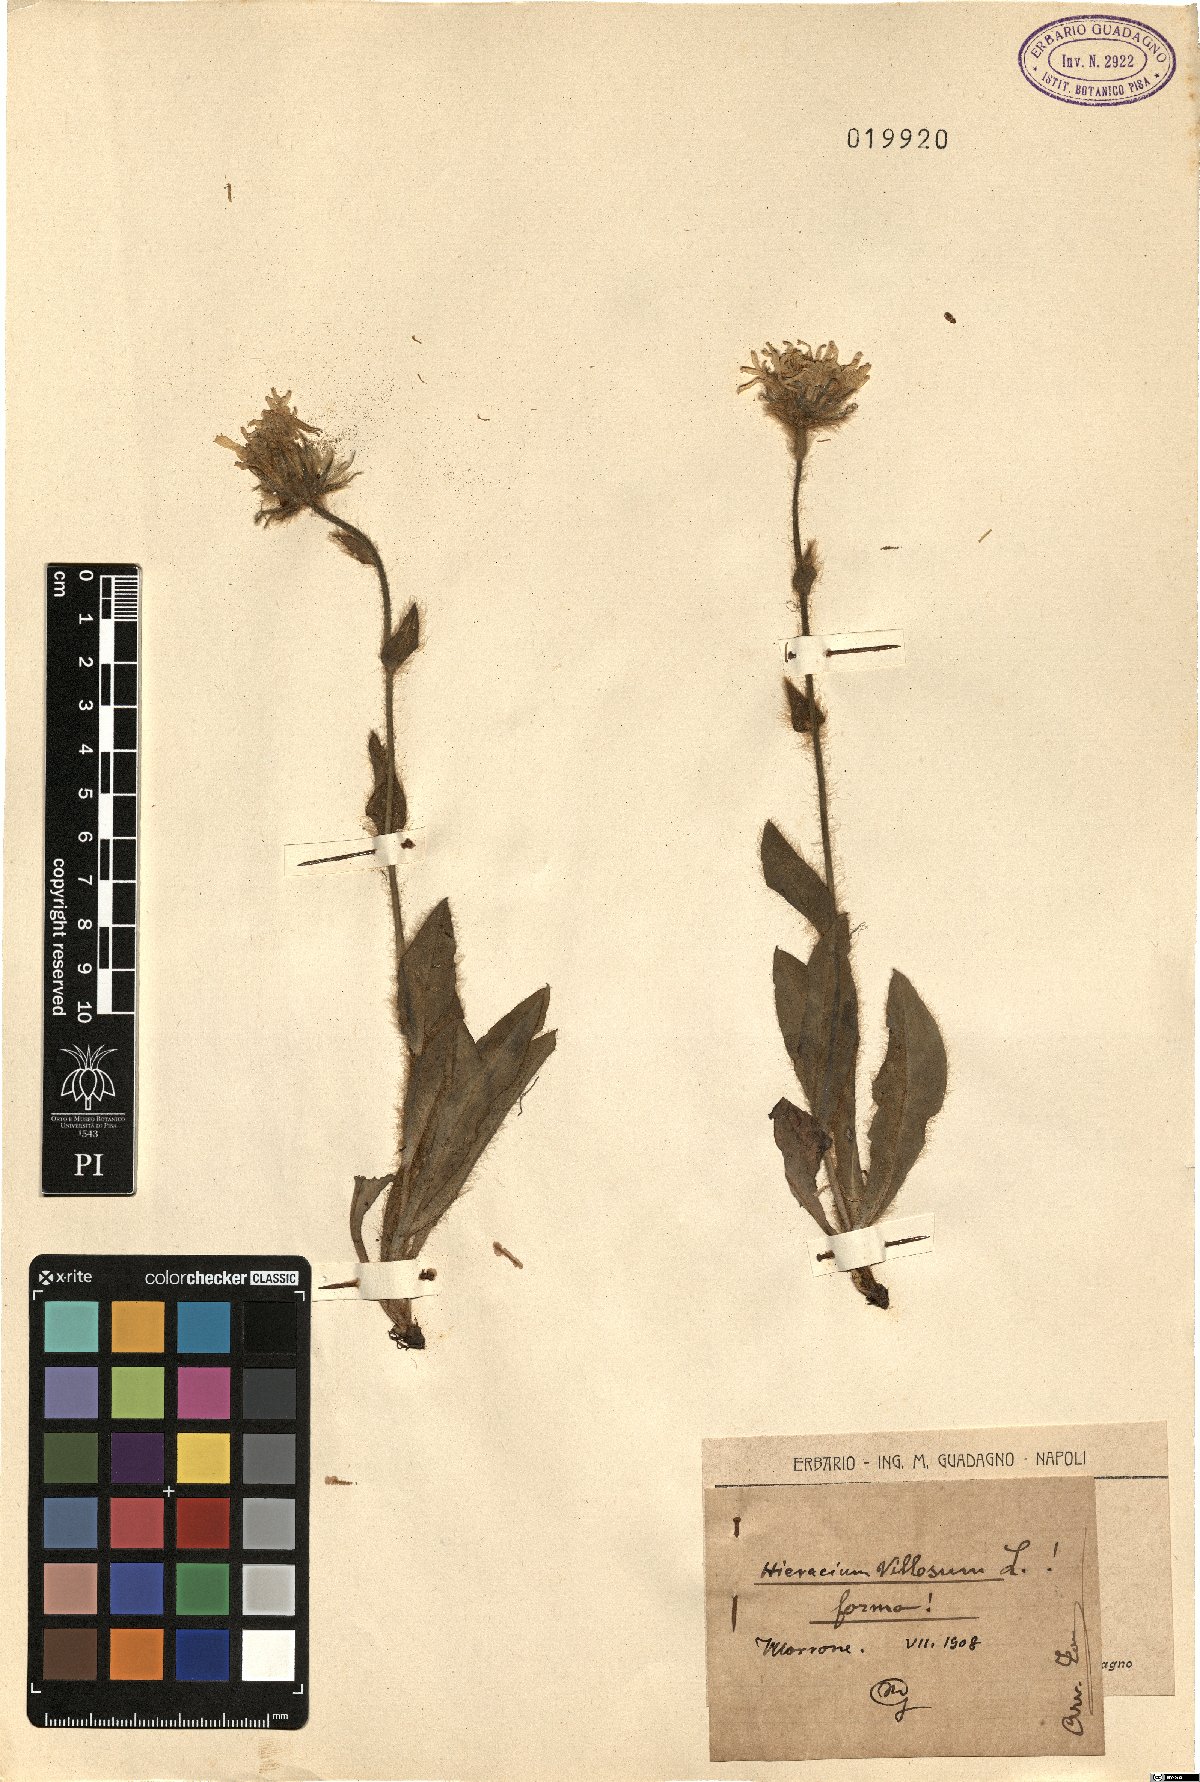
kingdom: Plantae
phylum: Tracheophyta
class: Magnoliopsida
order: Asterales
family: Asteraceae
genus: Hieracium
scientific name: Hieracium villosum
